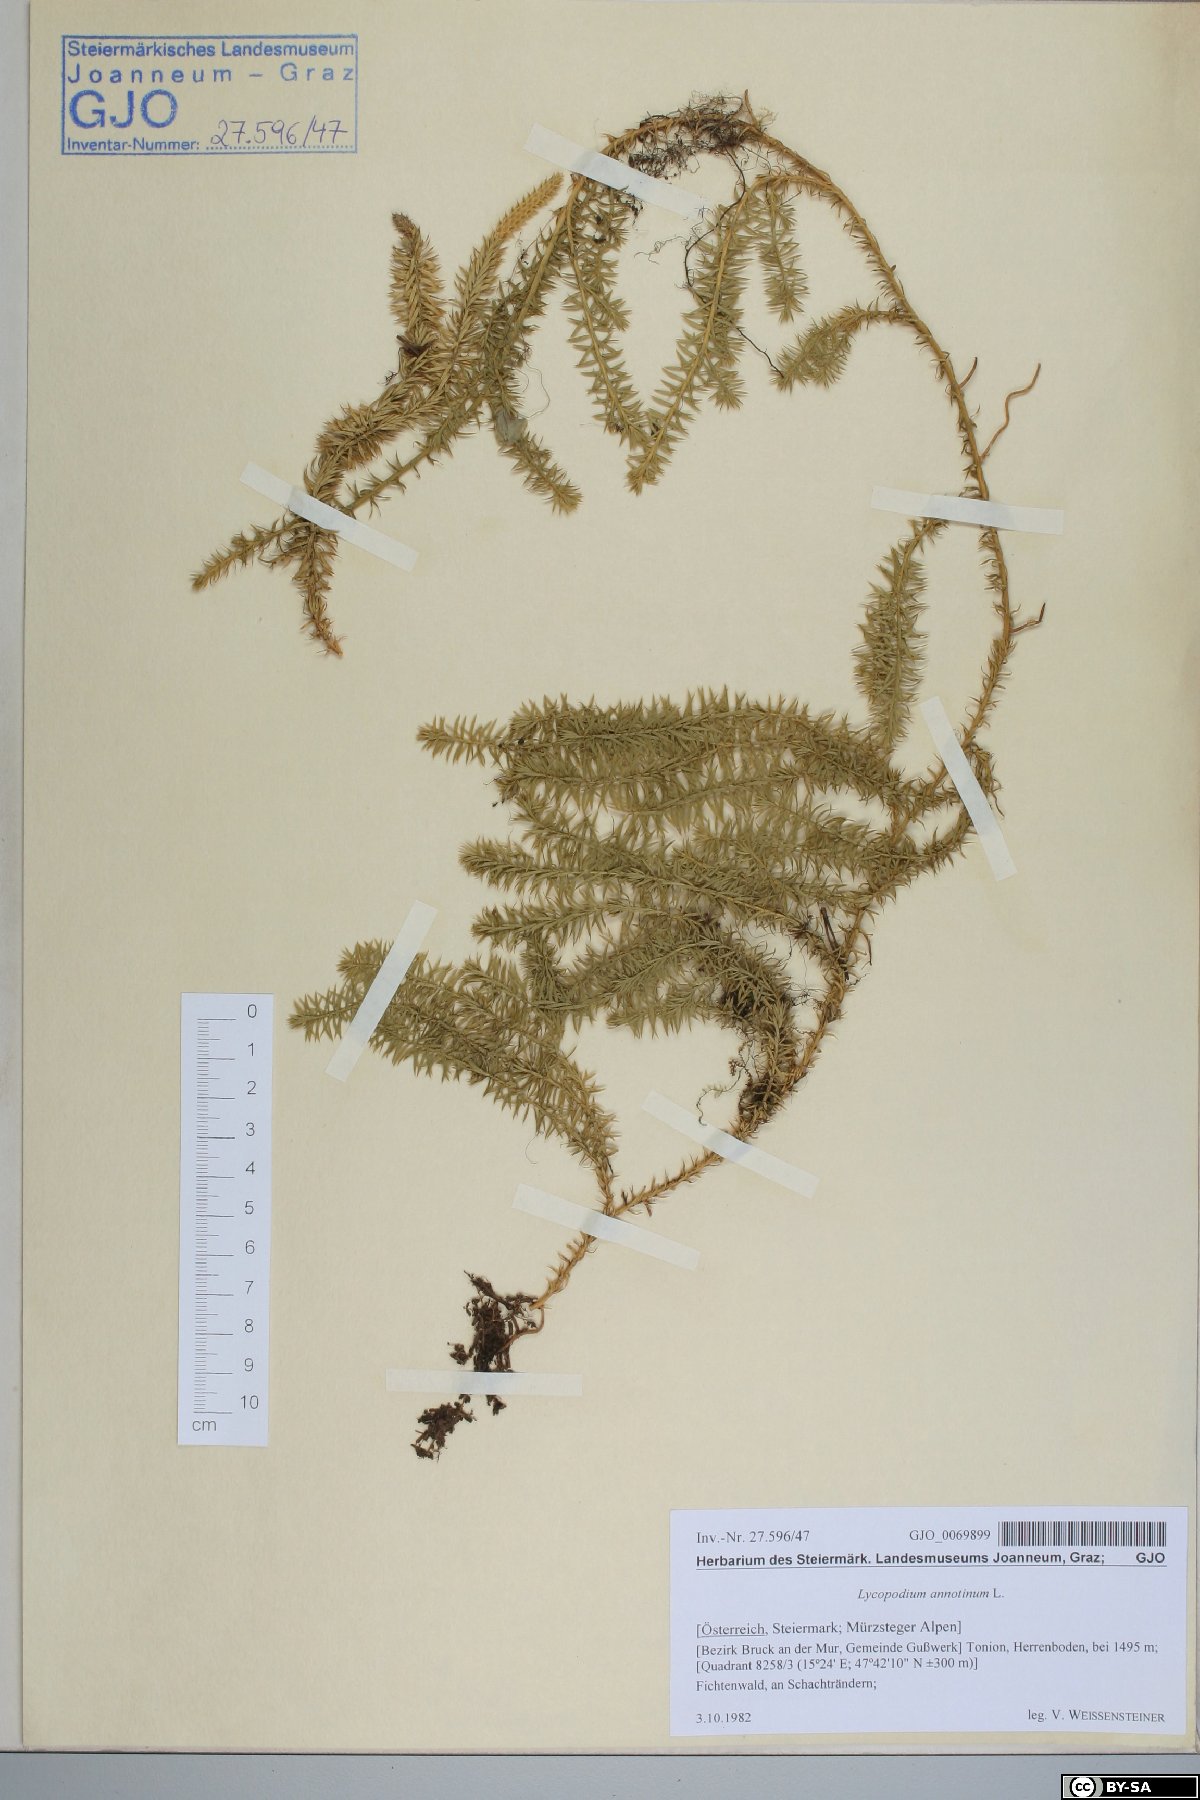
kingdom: Plantae
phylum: Tracheophyta
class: Lycopodiopsida
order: Lycopodiales
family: Lycopodiaceae
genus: Spinulum
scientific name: Spinulum annotinum
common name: Interrupted club-moss
